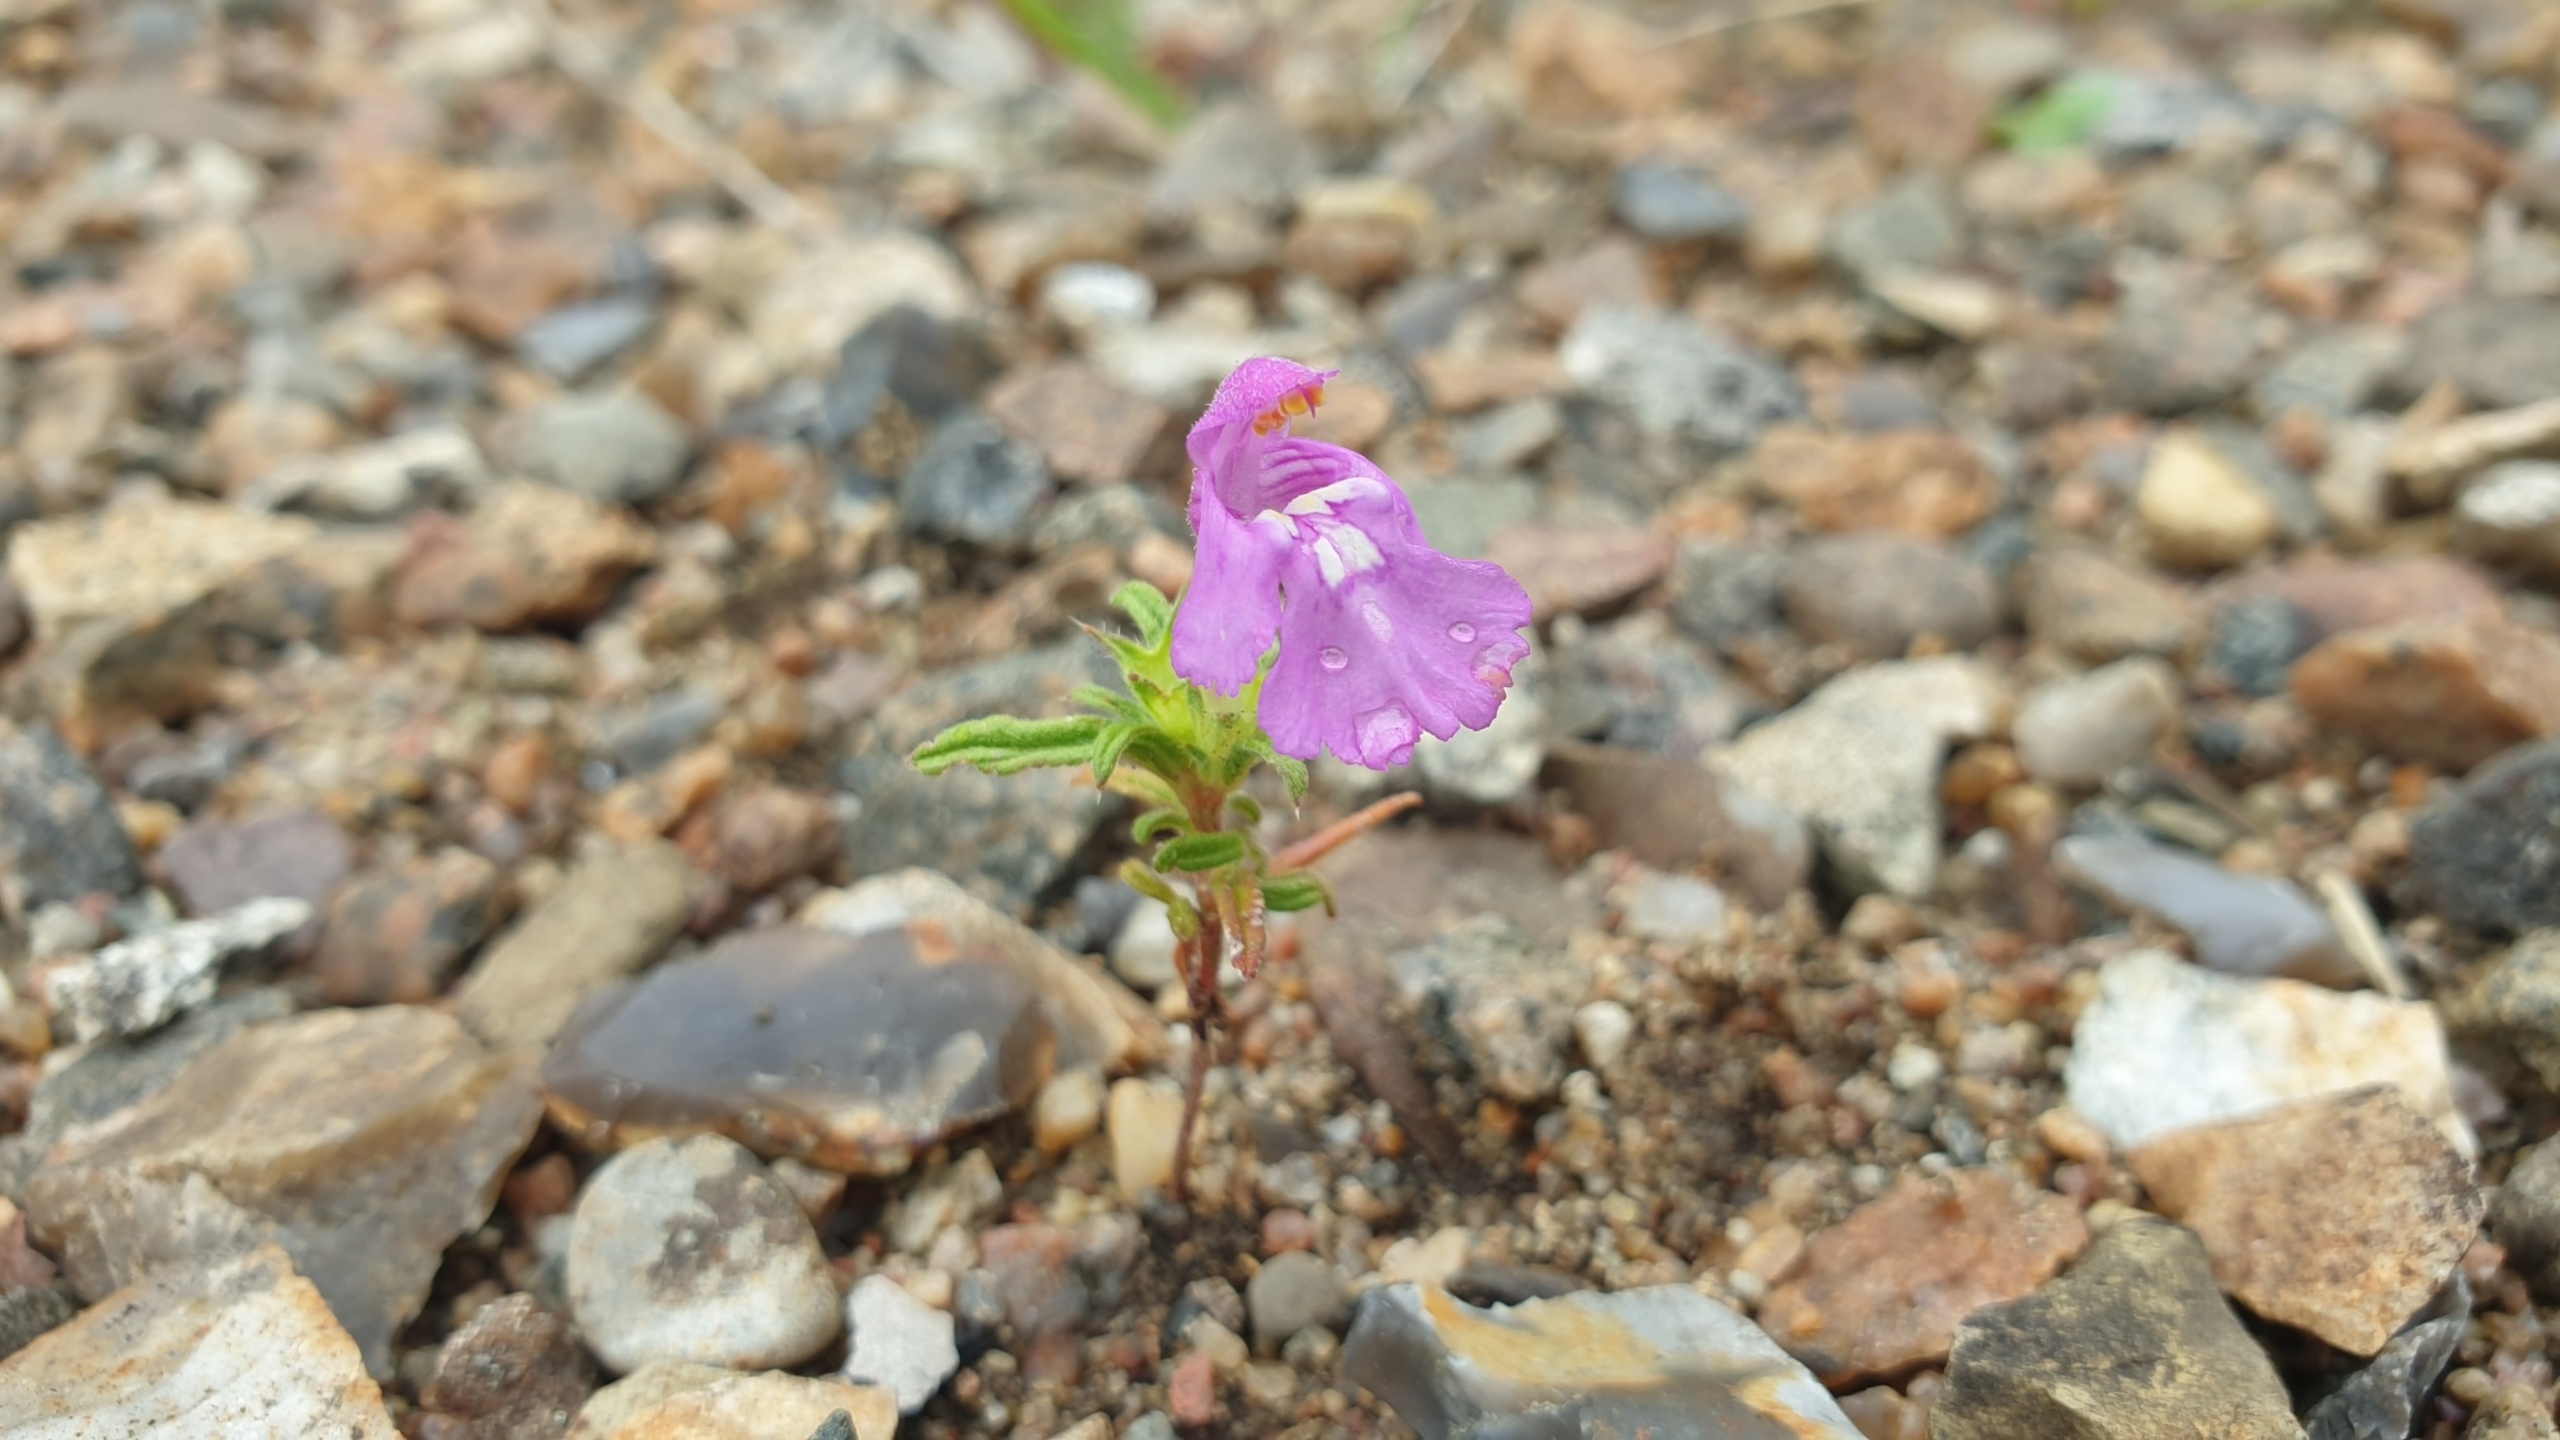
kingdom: Plantae
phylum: Tracheophyta
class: Magnoliopsida
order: Lamiales
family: Lamiaceae
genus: Galeopsis
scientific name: Galeopsis angustifolia
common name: Smalbladet hanekro
